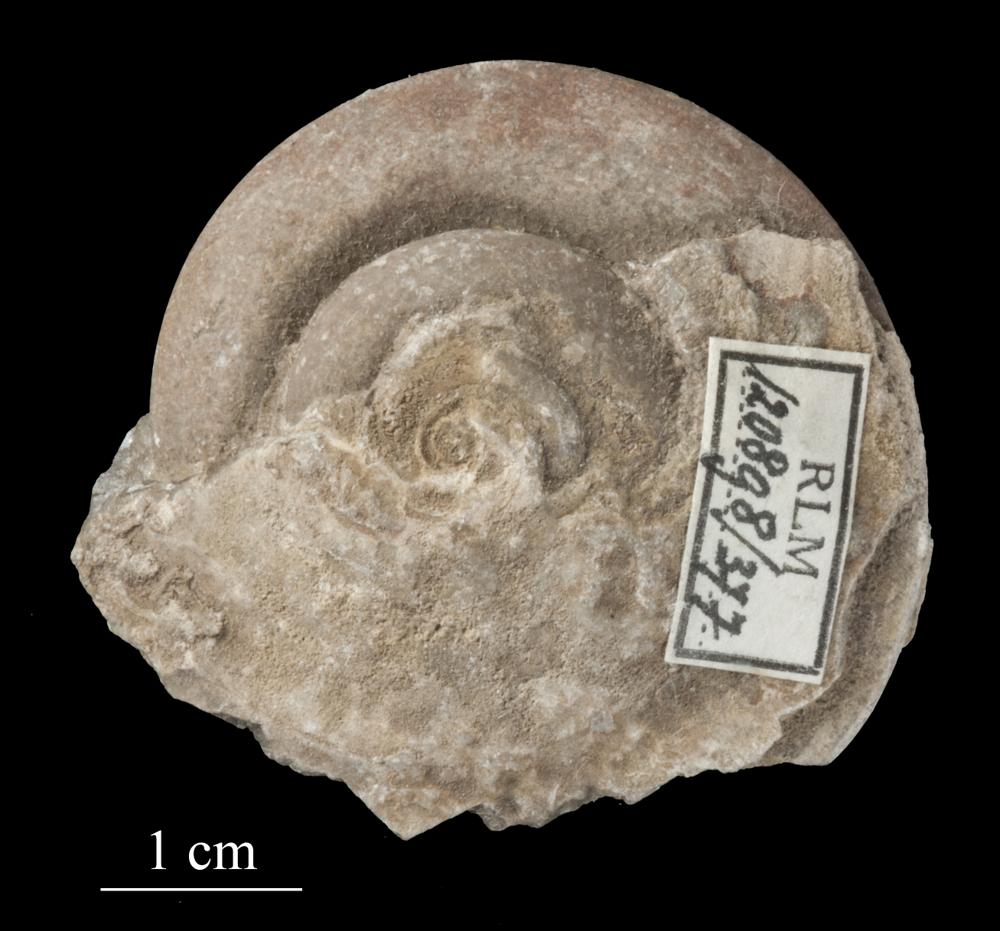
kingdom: Animalia
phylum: Mollusca
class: Gastropoda
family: Lesueurillidae
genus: Pararaphistoma
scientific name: Pararaphistoma Helicites qualteriata
